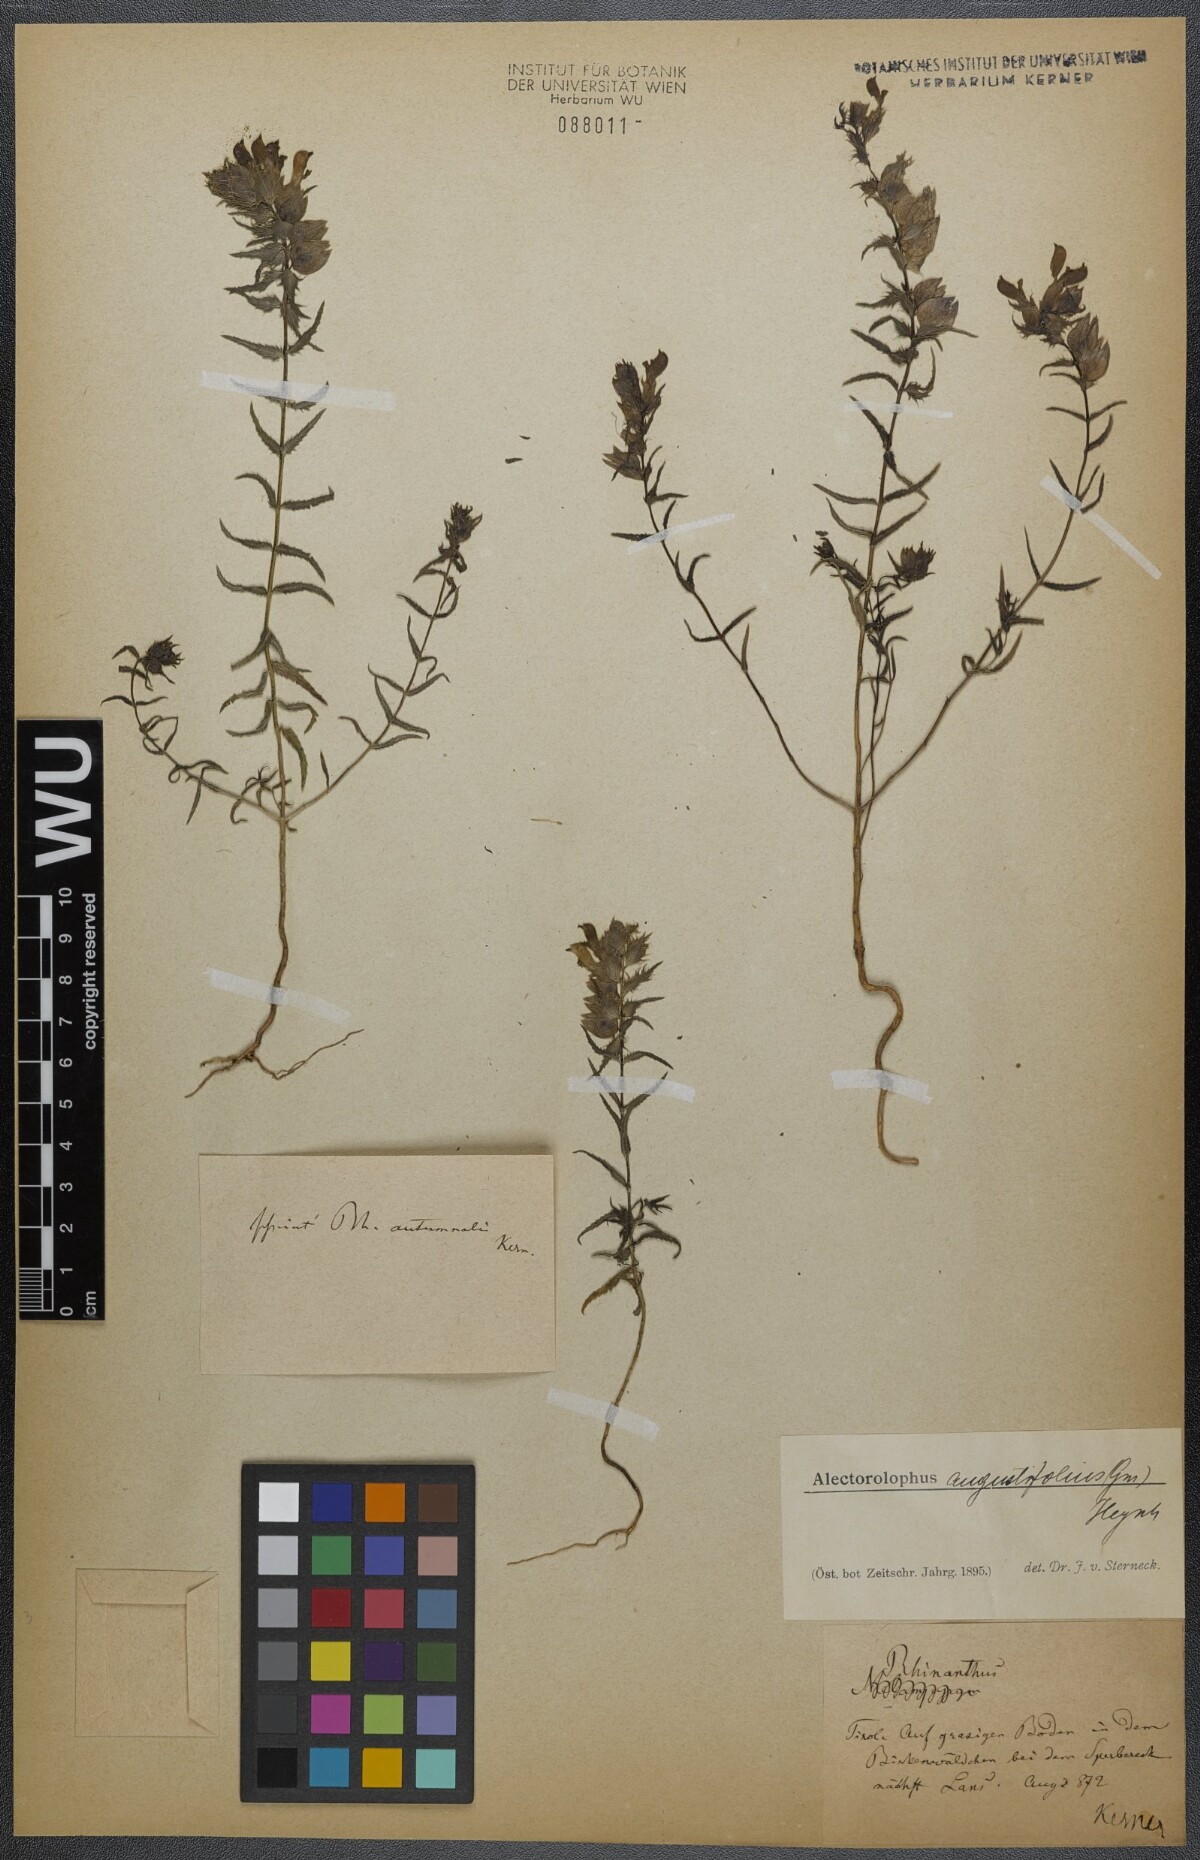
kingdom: Plantae
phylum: Tracheophyta
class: Magnoliopsida
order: Lamiales
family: Orobanchaceae
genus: Rhinanthus
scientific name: Rhinanthus
